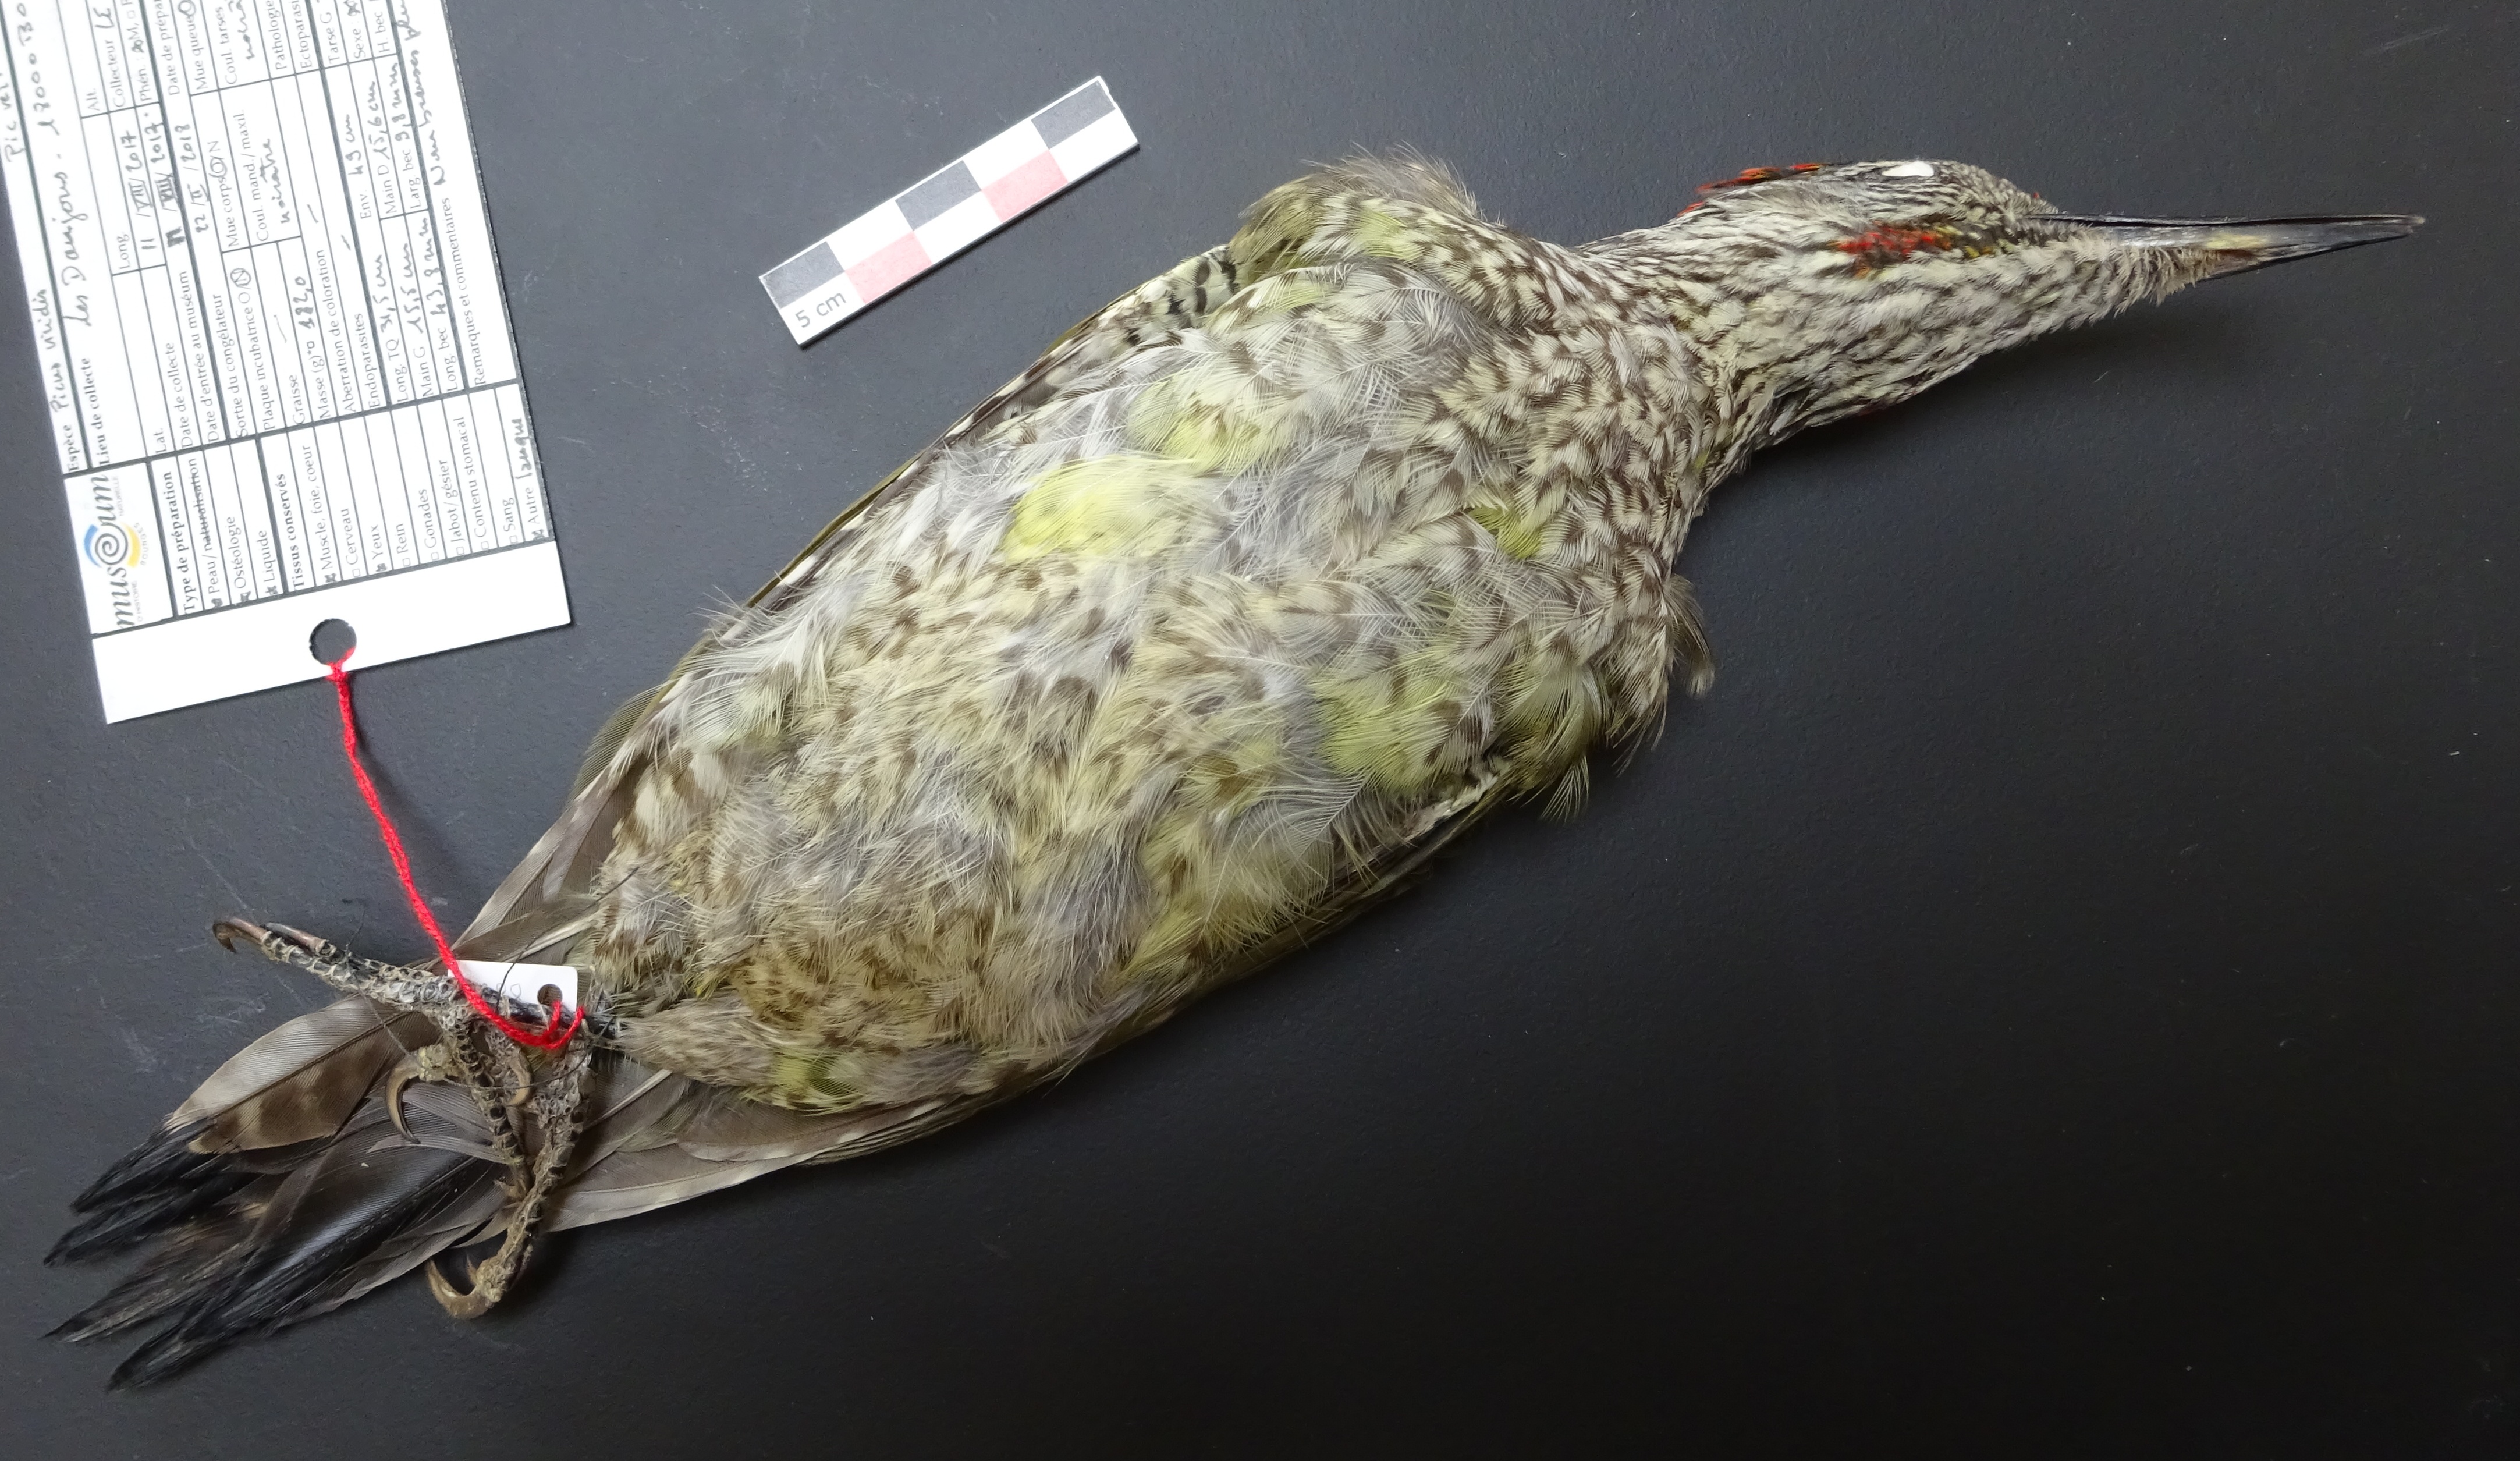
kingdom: Animalia
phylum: Chordata
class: Aves
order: Piciformes
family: Picidae
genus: Picus
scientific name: Picus viridis
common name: European green woodpecker
